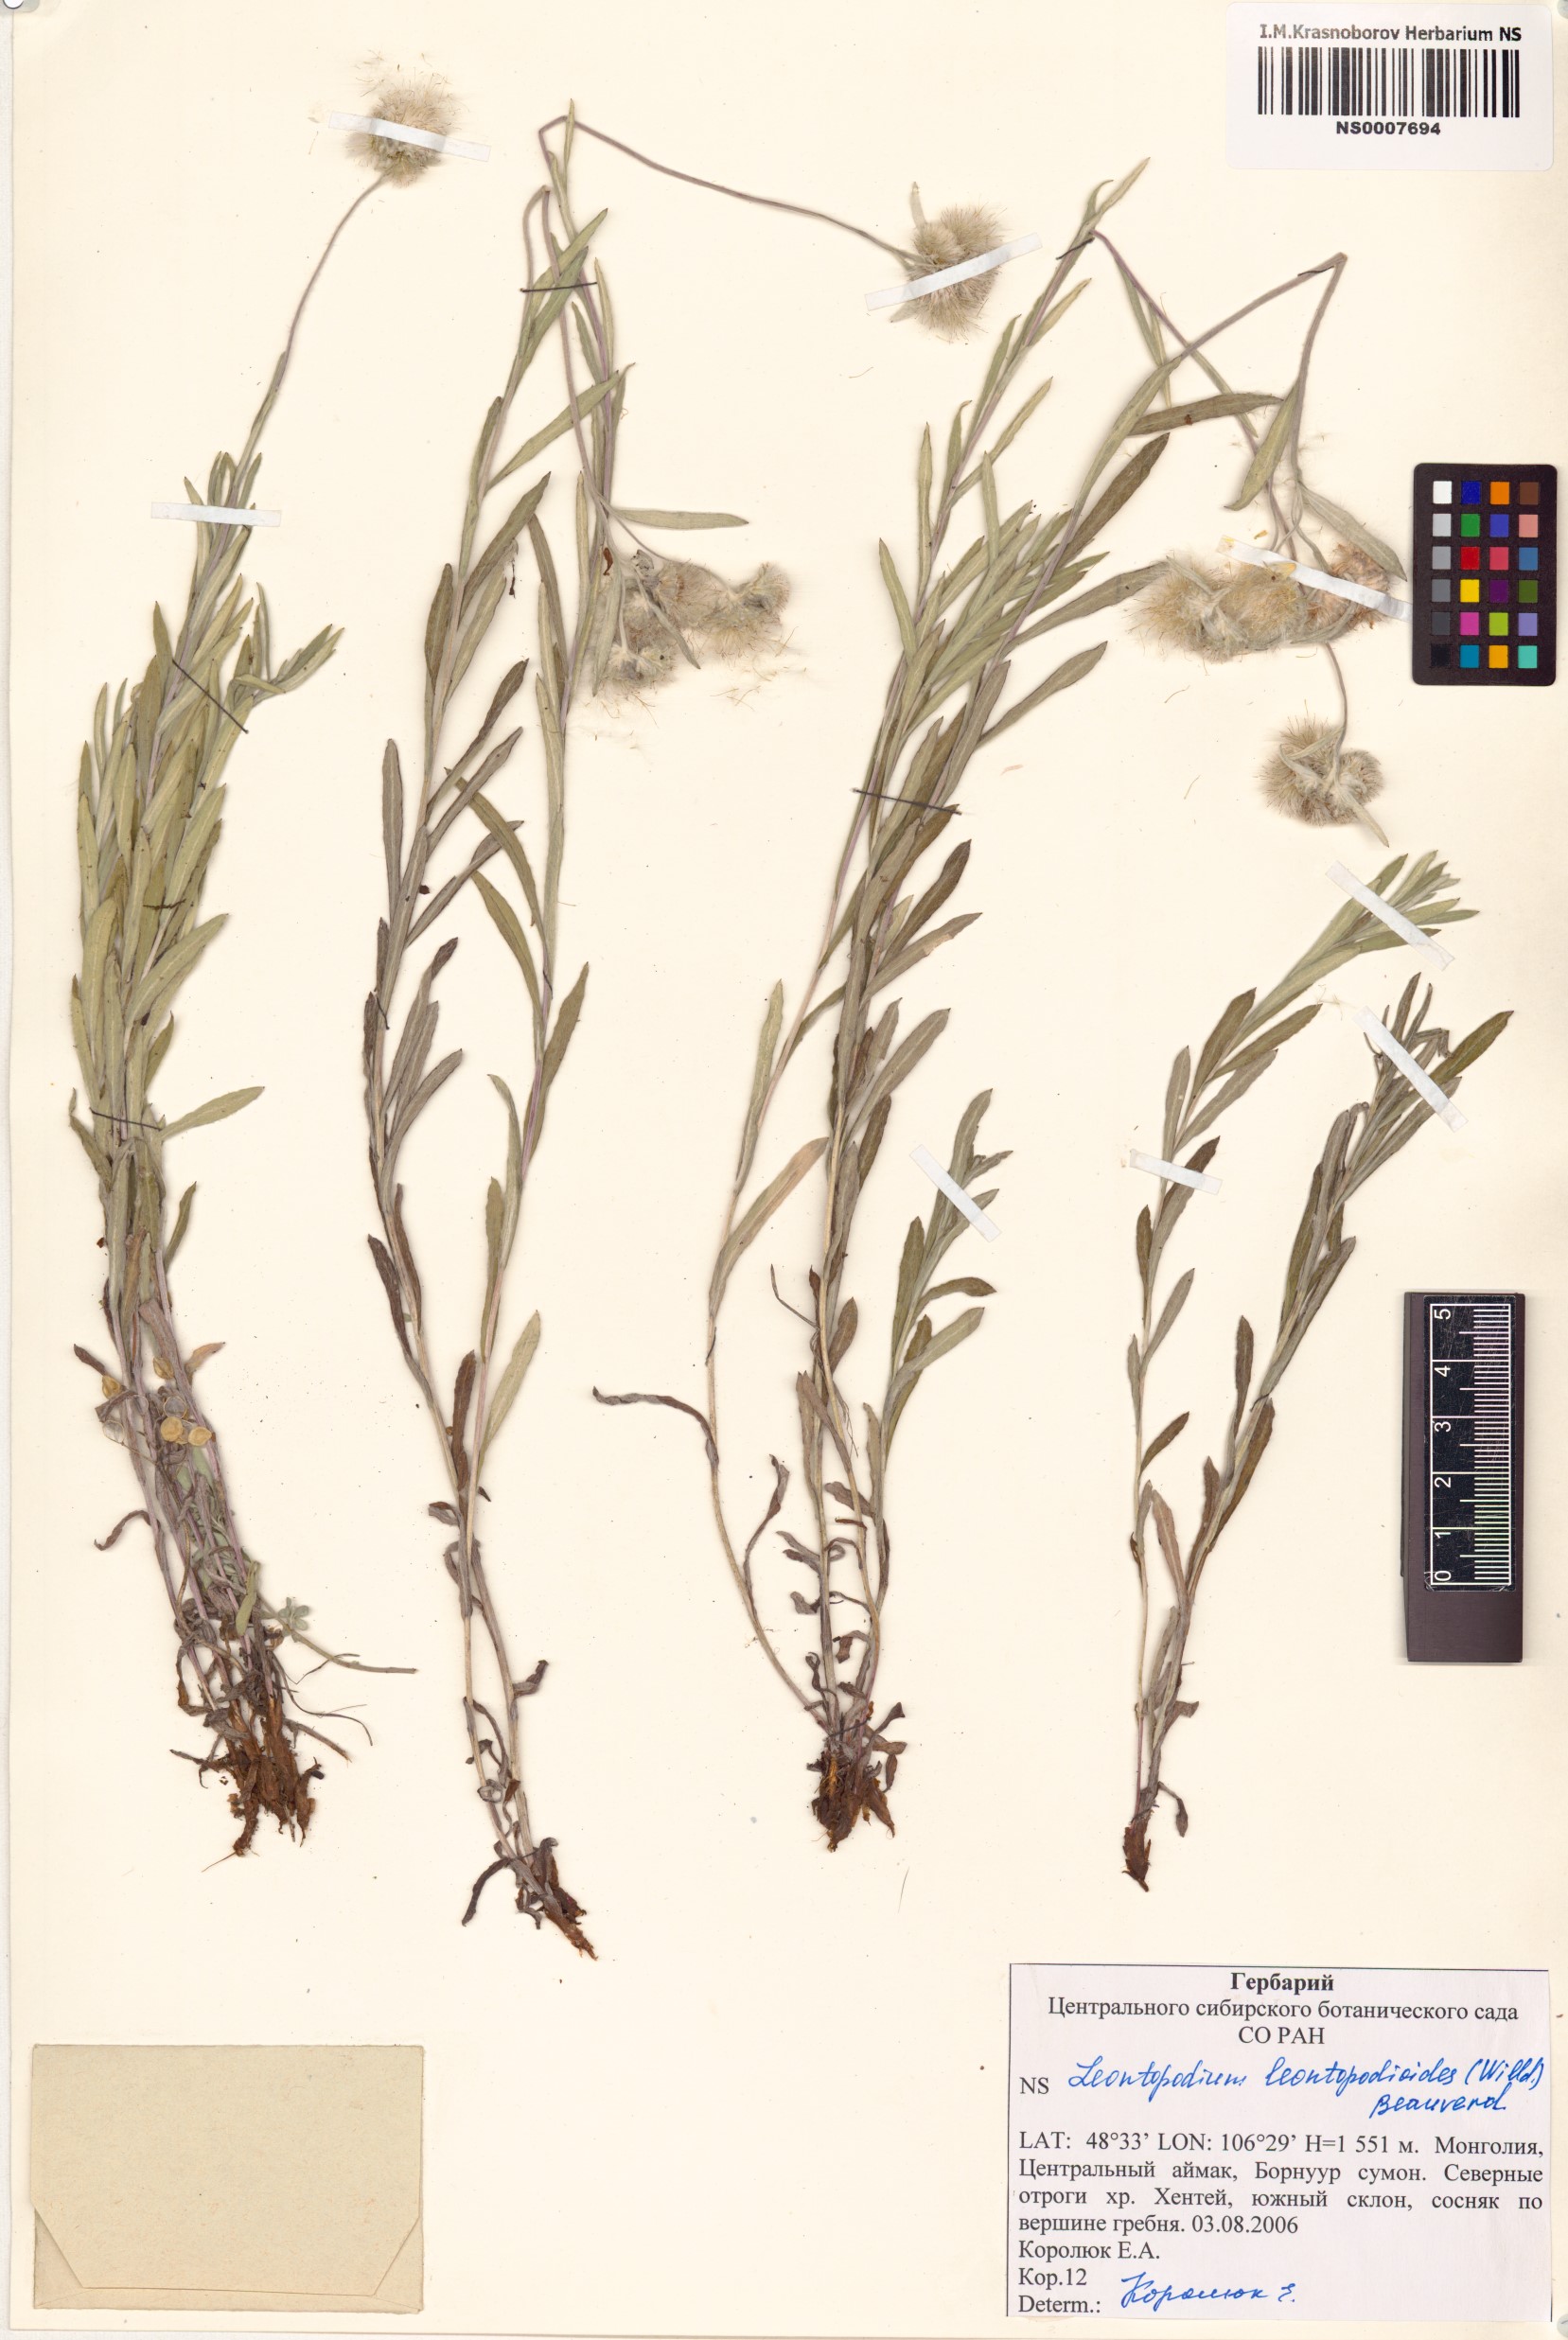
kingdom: Plantae
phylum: Tracheophyta
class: Magnoliopsida
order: Asterales
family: Asteraceae
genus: Leontopodium
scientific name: Leontopodium leontopodioides
